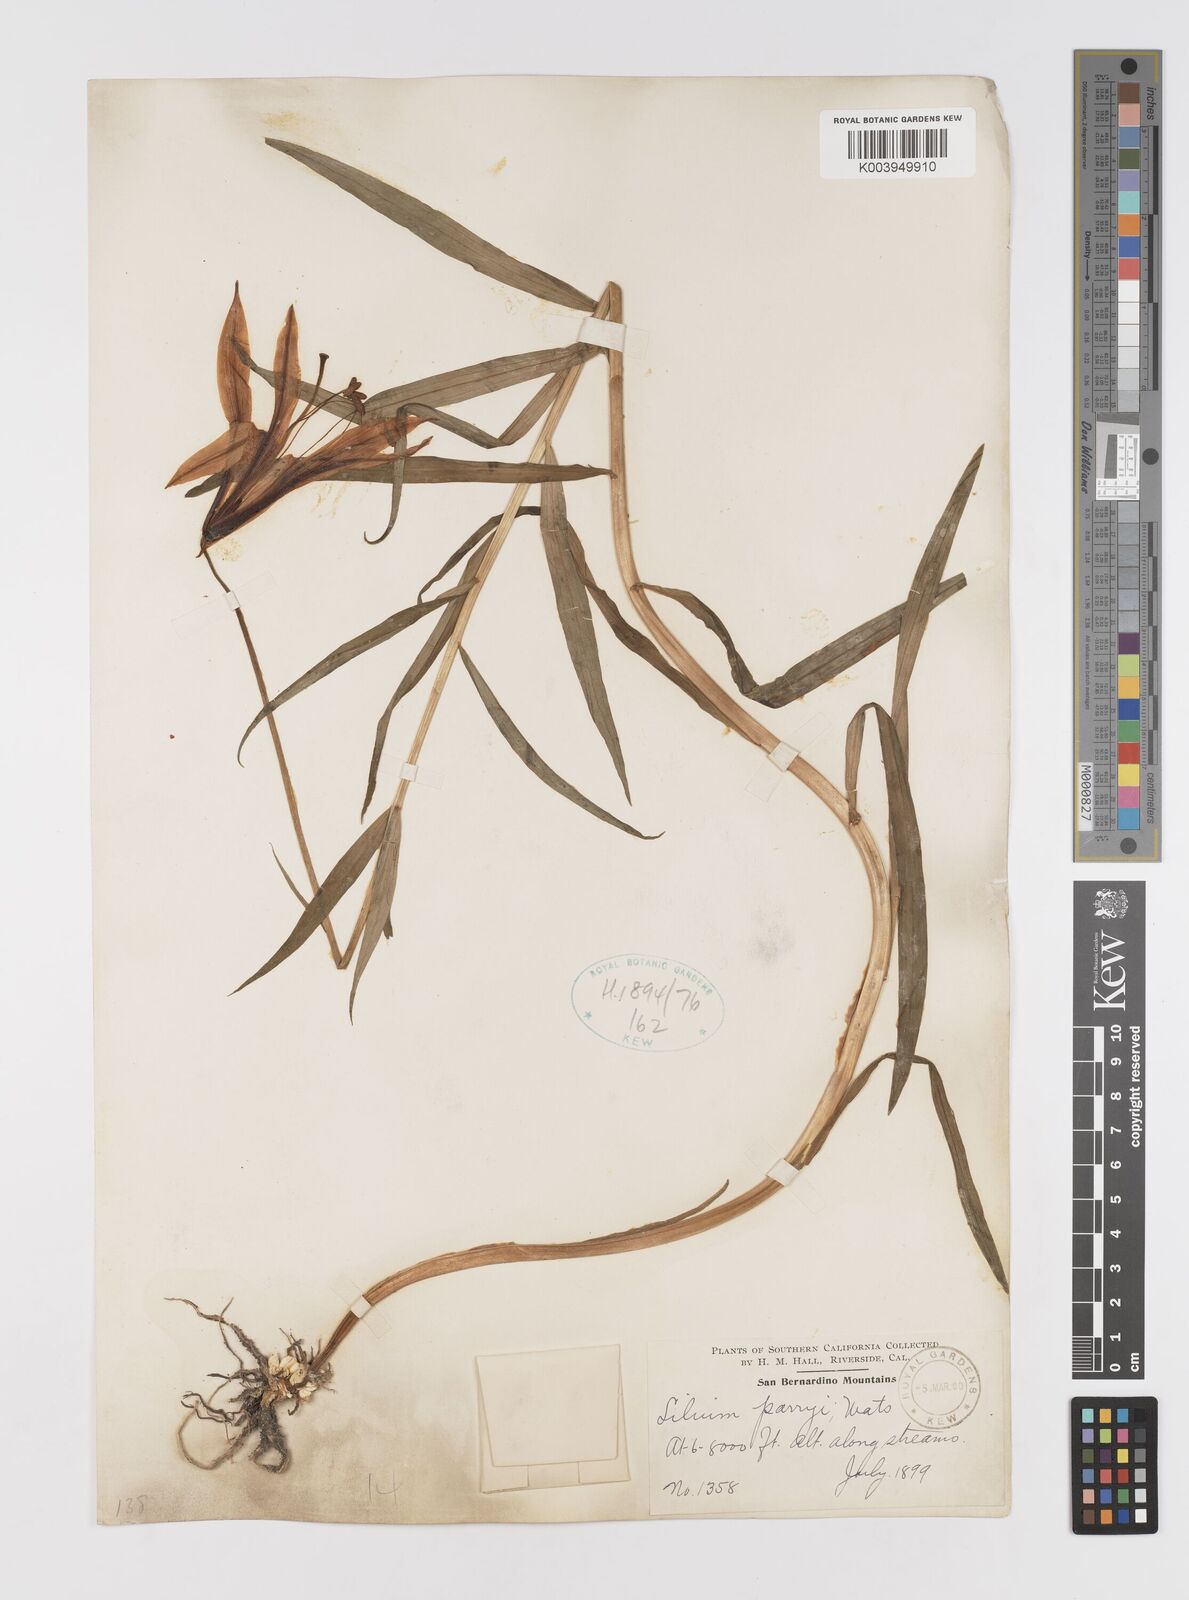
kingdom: Plantae
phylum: Tracheophyta
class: Liliopsida
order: Liliales
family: Liliaceae
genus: Lilium
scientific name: Lilium parryi
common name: Lemon lily
